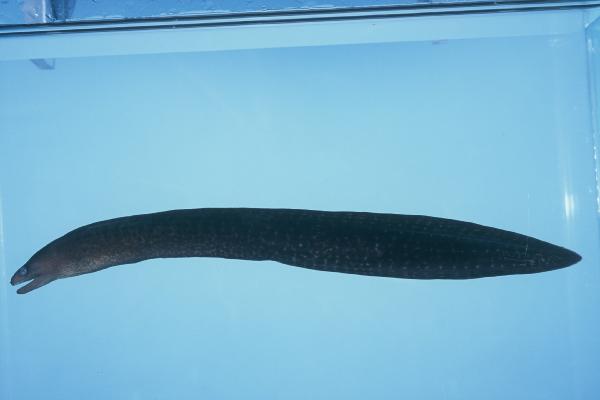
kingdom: Animalia
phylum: Chordata
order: Anguilliformes
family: Muraenidae
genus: Gymnothorax
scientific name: Gymnothorax buroensis
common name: Latticetail moray
